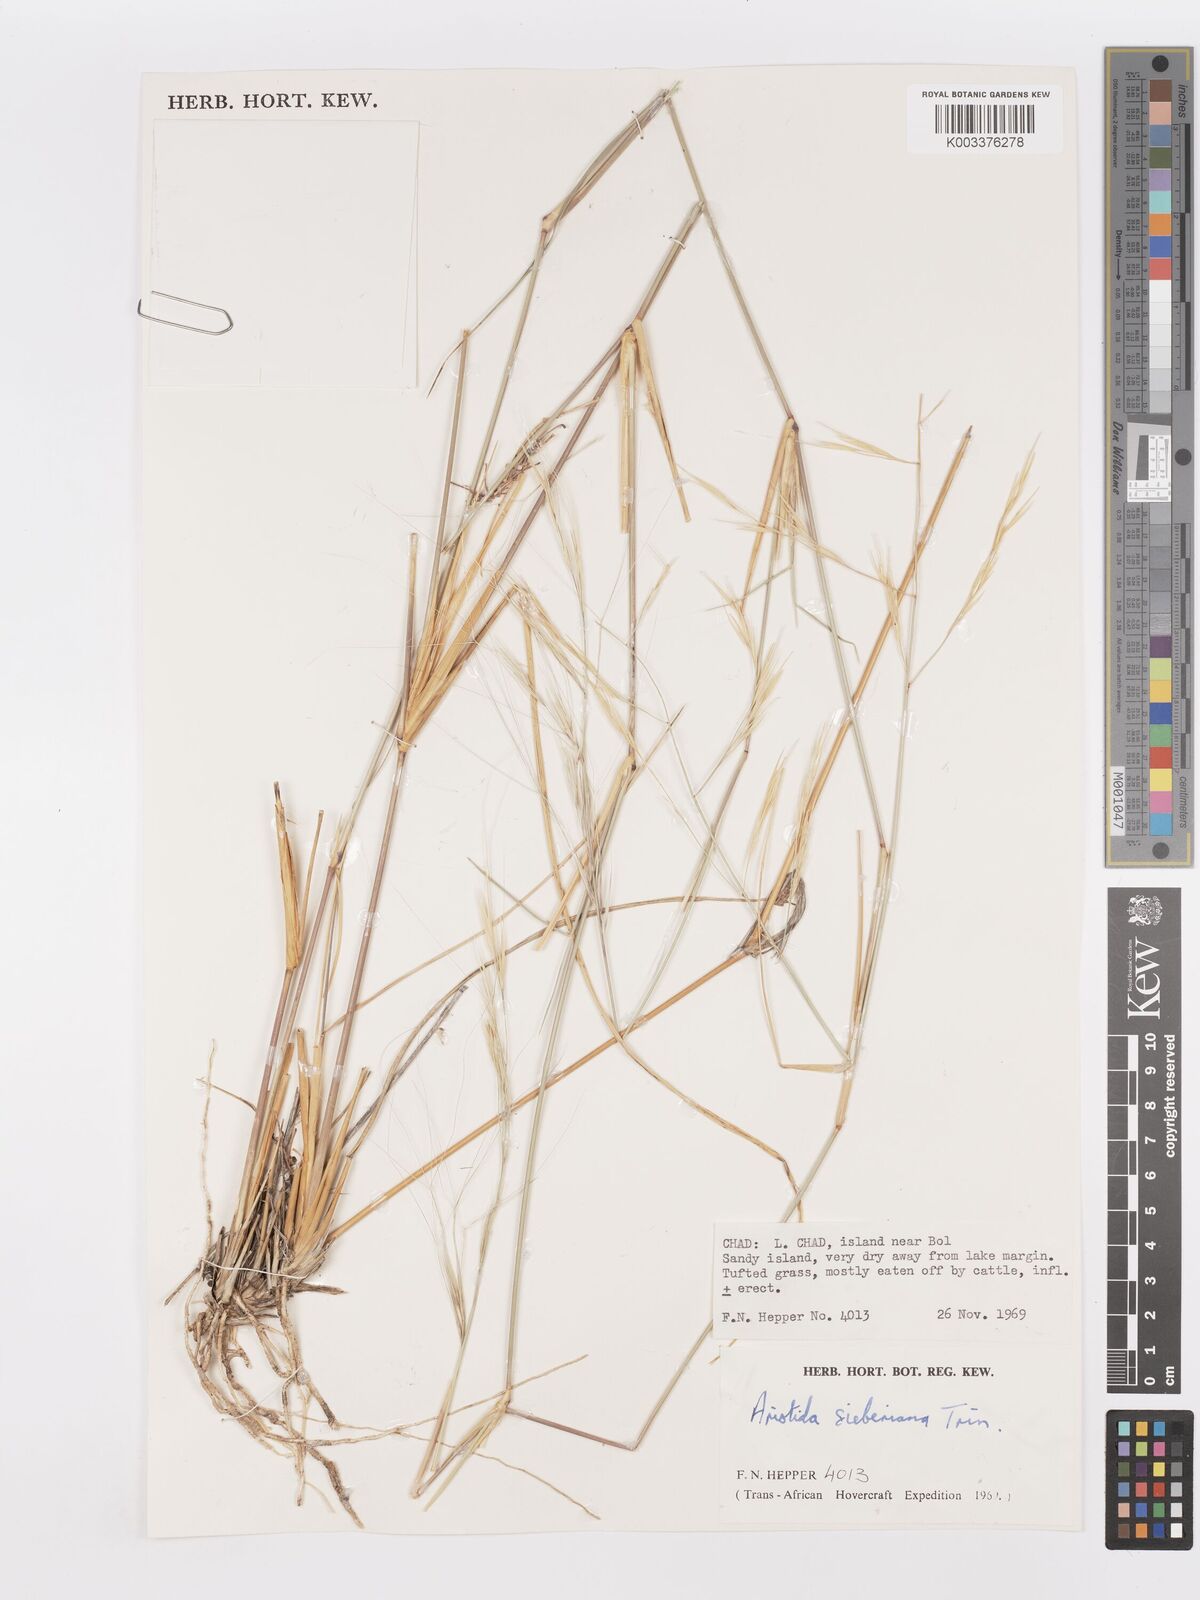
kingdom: Plantae
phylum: Tracheophyta
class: Liliopsida
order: Poales
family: Poaceae
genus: Aristida
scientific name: Aristida sieberiana
